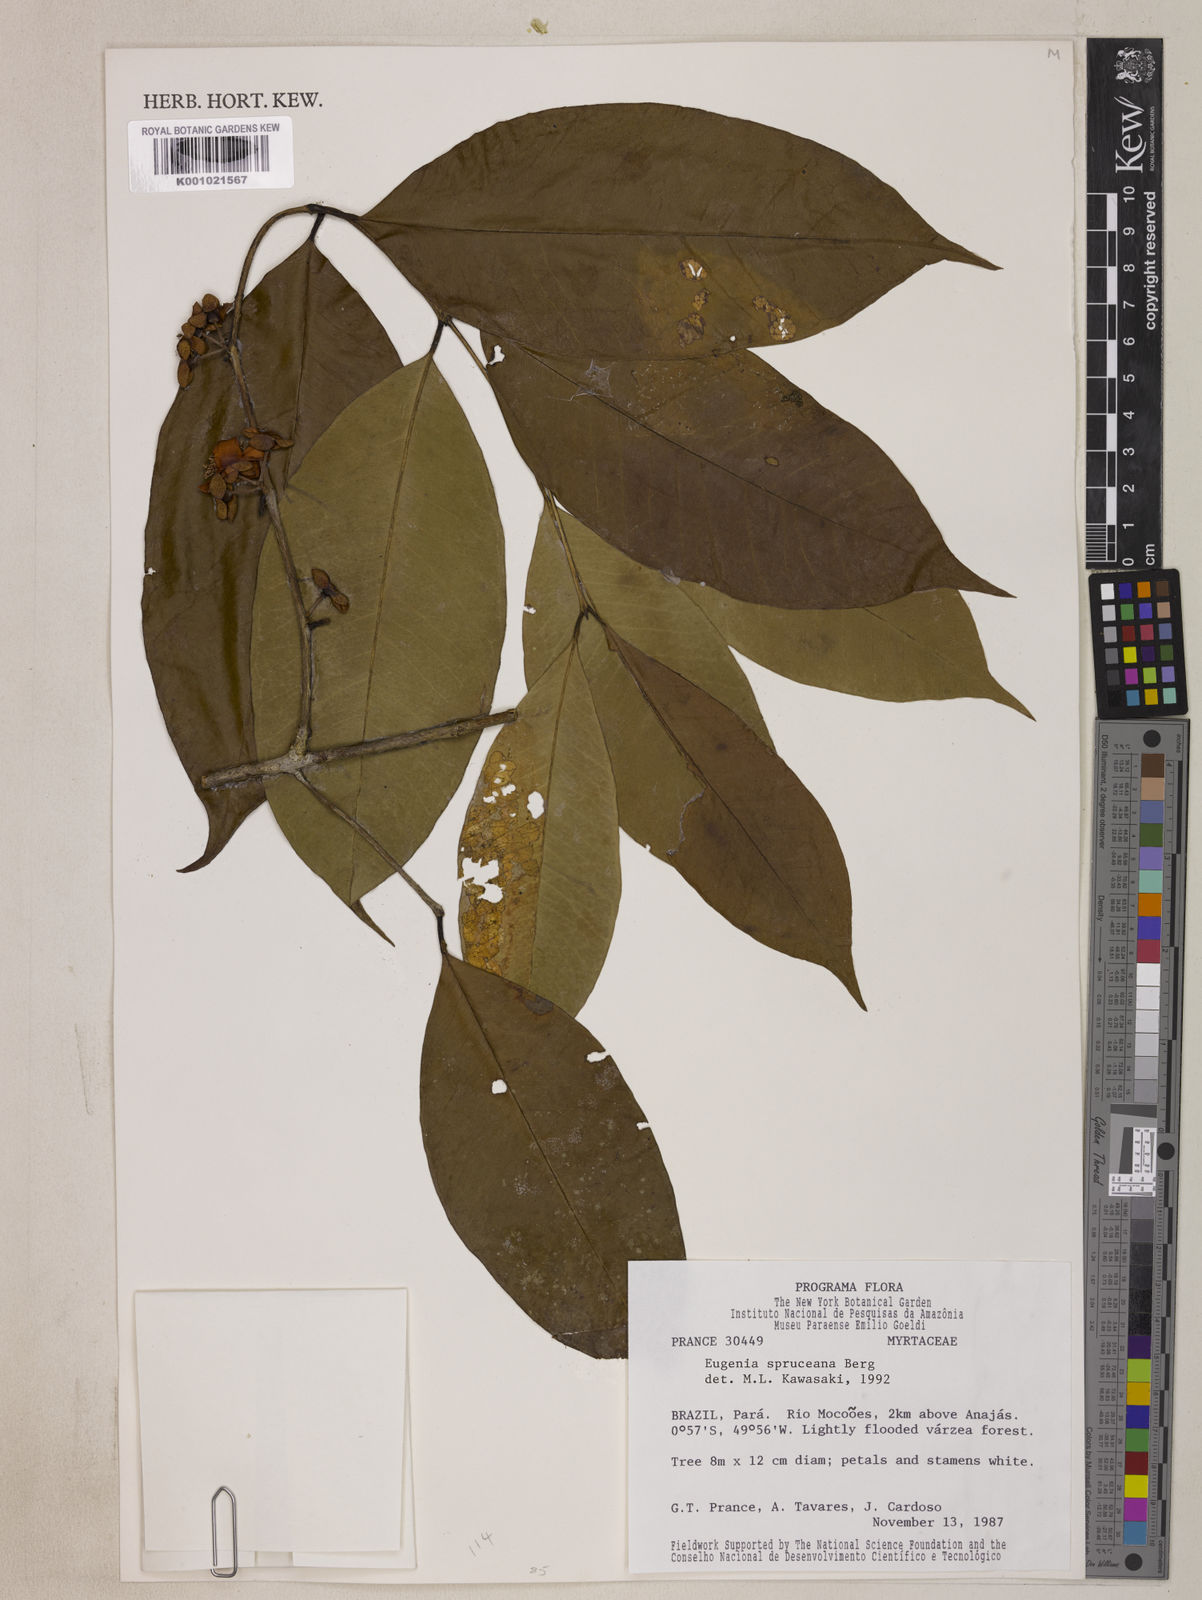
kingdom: Plantae
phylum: Tracheophyta
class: Magnoliopsida
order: Myrtales
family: Myrtaceae
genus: Eugenia
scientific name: Eugenia spruceana
